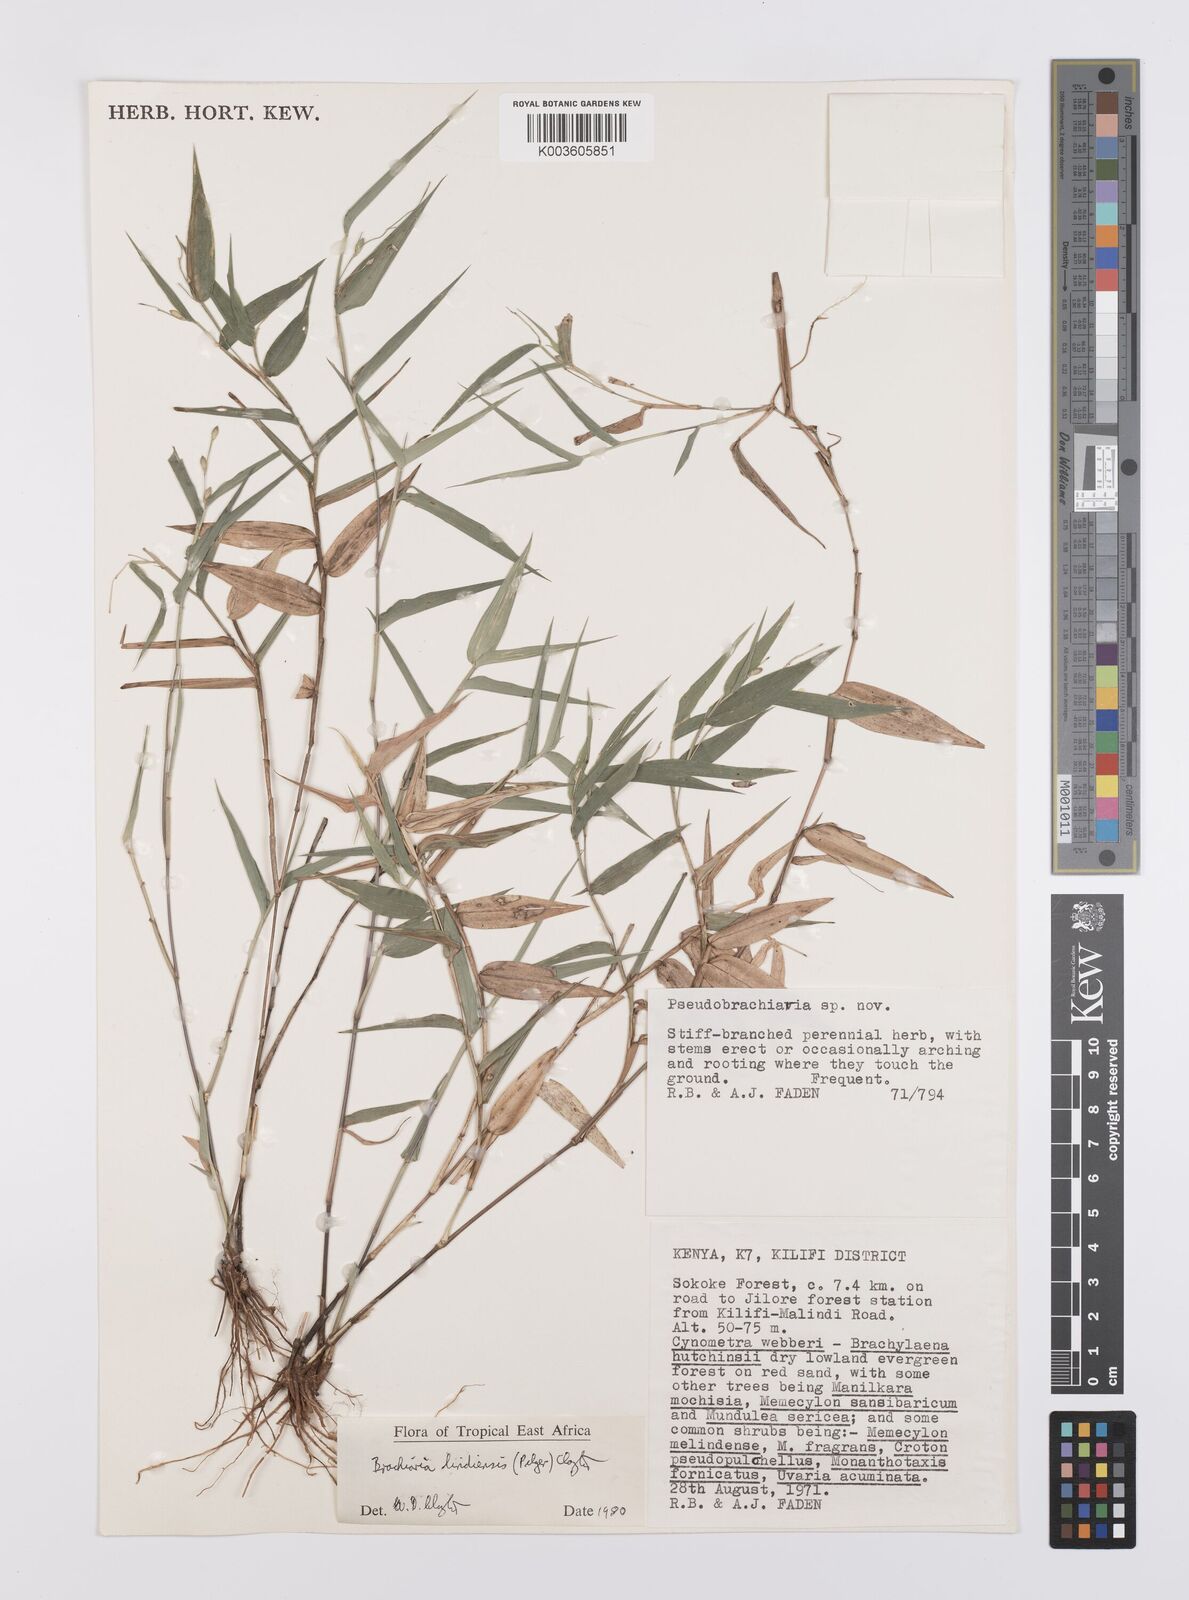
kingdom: Plantae
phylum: Tracheophyta
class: Liliopsida
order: Poales
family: Poaceae
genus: Urochloa
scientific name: Urochloa Brachiaria lindiensis
